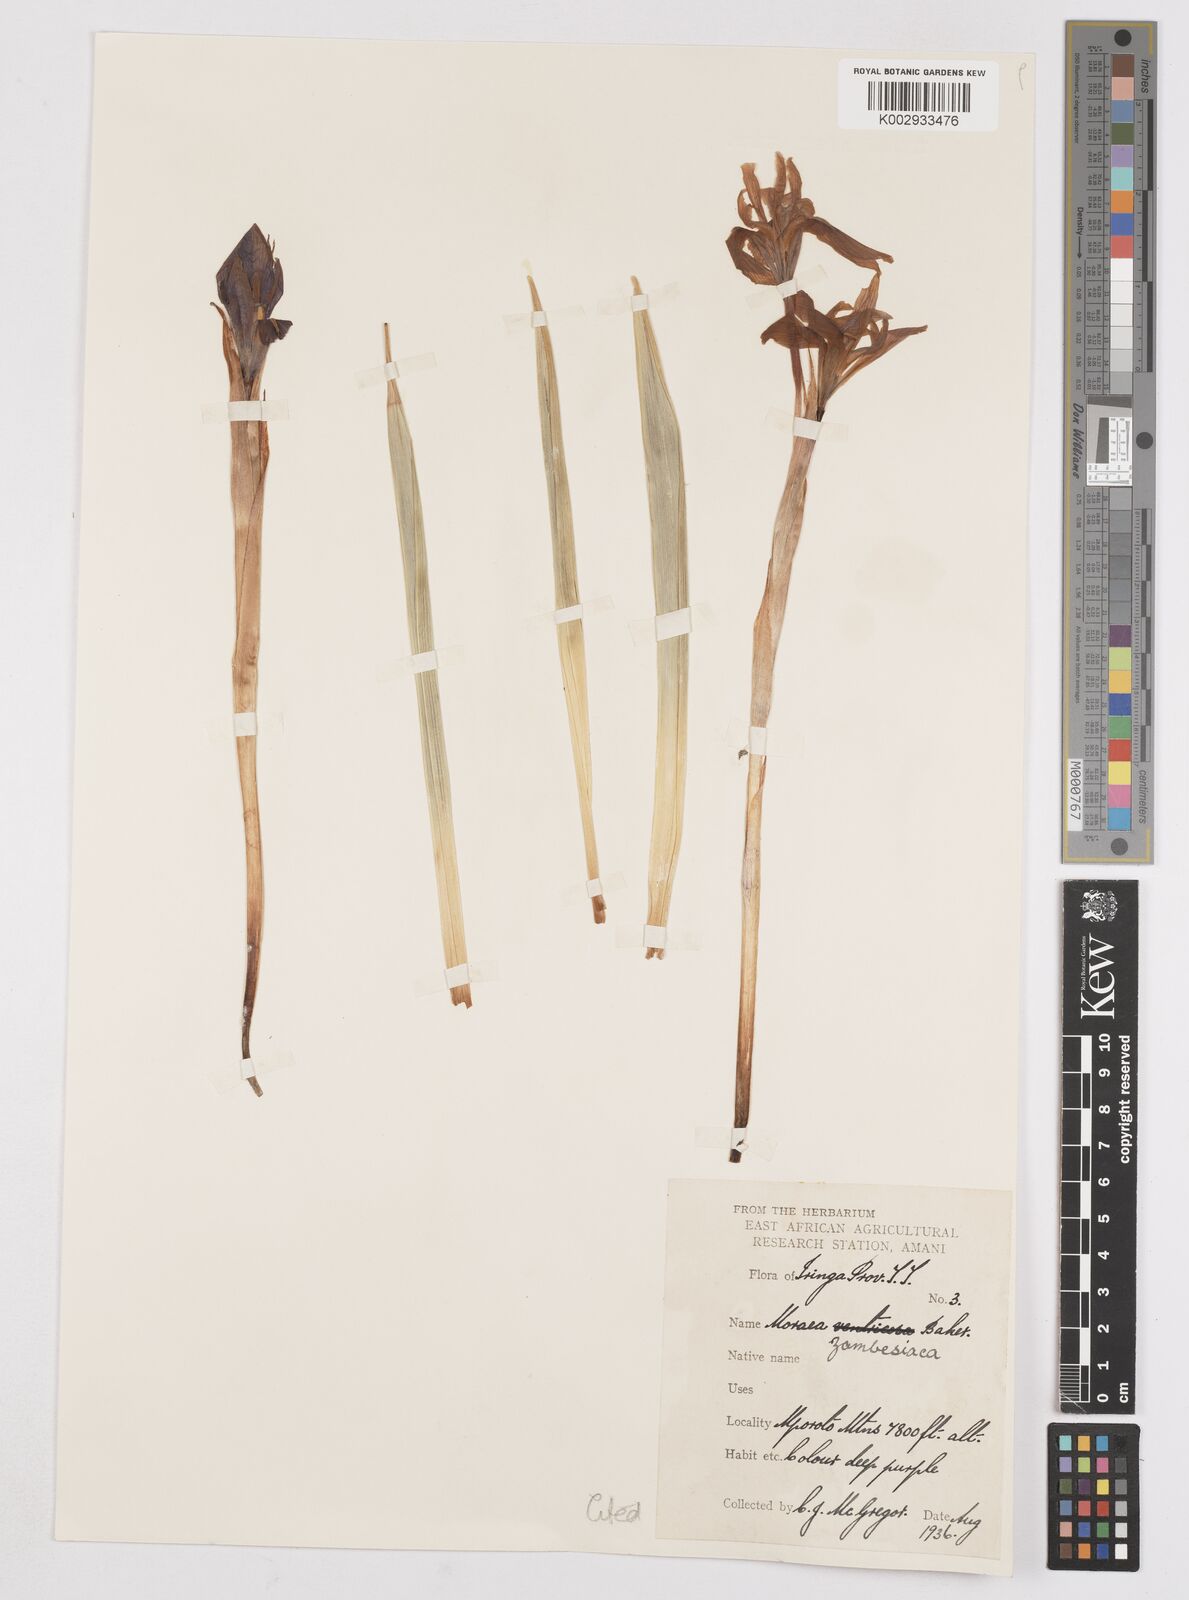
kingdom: Plantae
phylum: Tracheophyta
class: Liliopsida
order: Asparagales
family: Iridaceae
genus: Moraea
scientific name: Moraea schimperi
